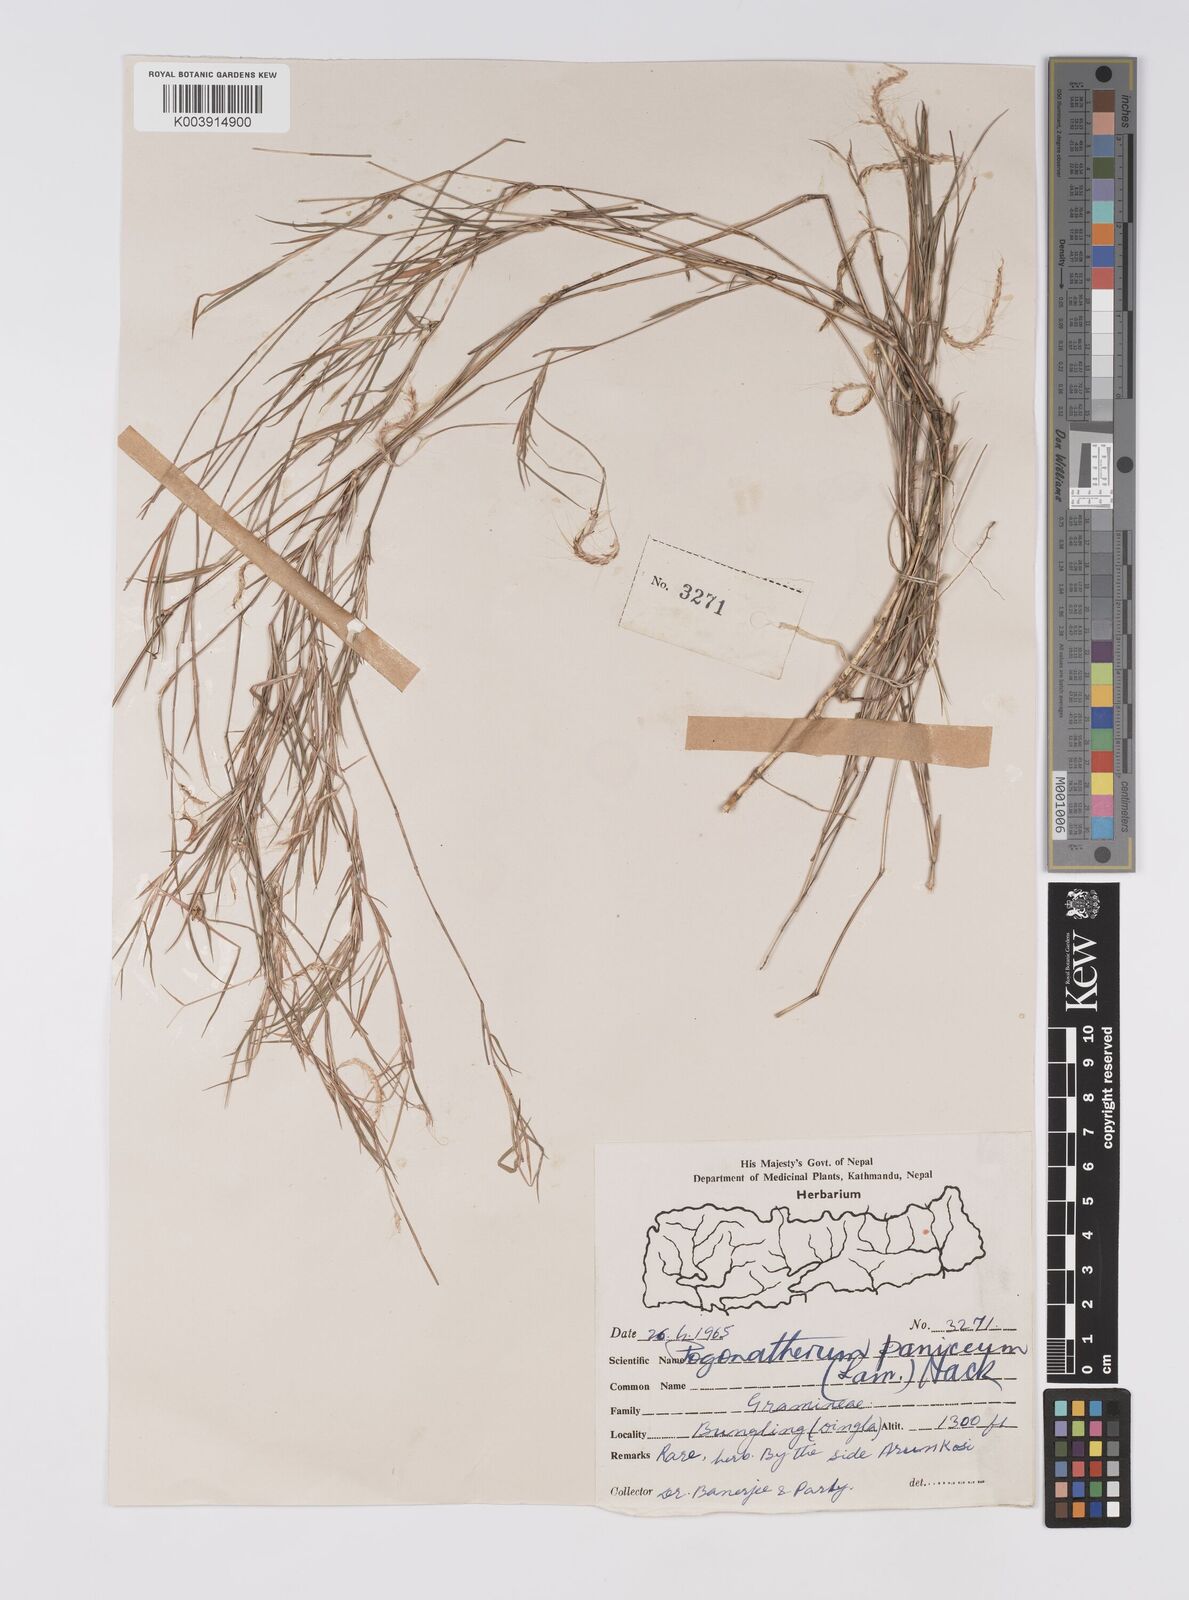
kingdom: Plantae
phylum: Tracheophyta
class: Liliopsida
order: Poales
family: Poaceae
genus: Pogonatherum
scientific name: Pogonatherum paniceum
